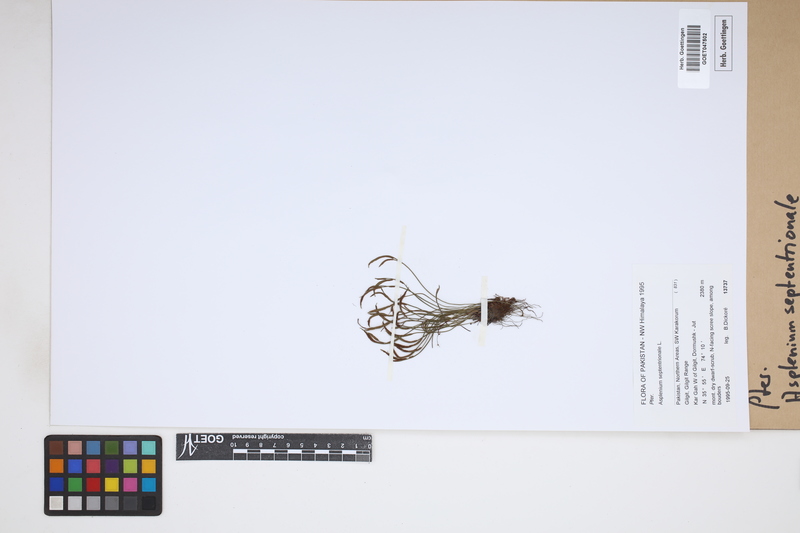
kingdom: Plantae
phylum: Tracheophyta
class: Polypodiopsida
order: Polypodiales
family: Aspleniaceae
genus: Asplenium
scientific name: Asplenium septentrionale
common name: Forked spleenwort
